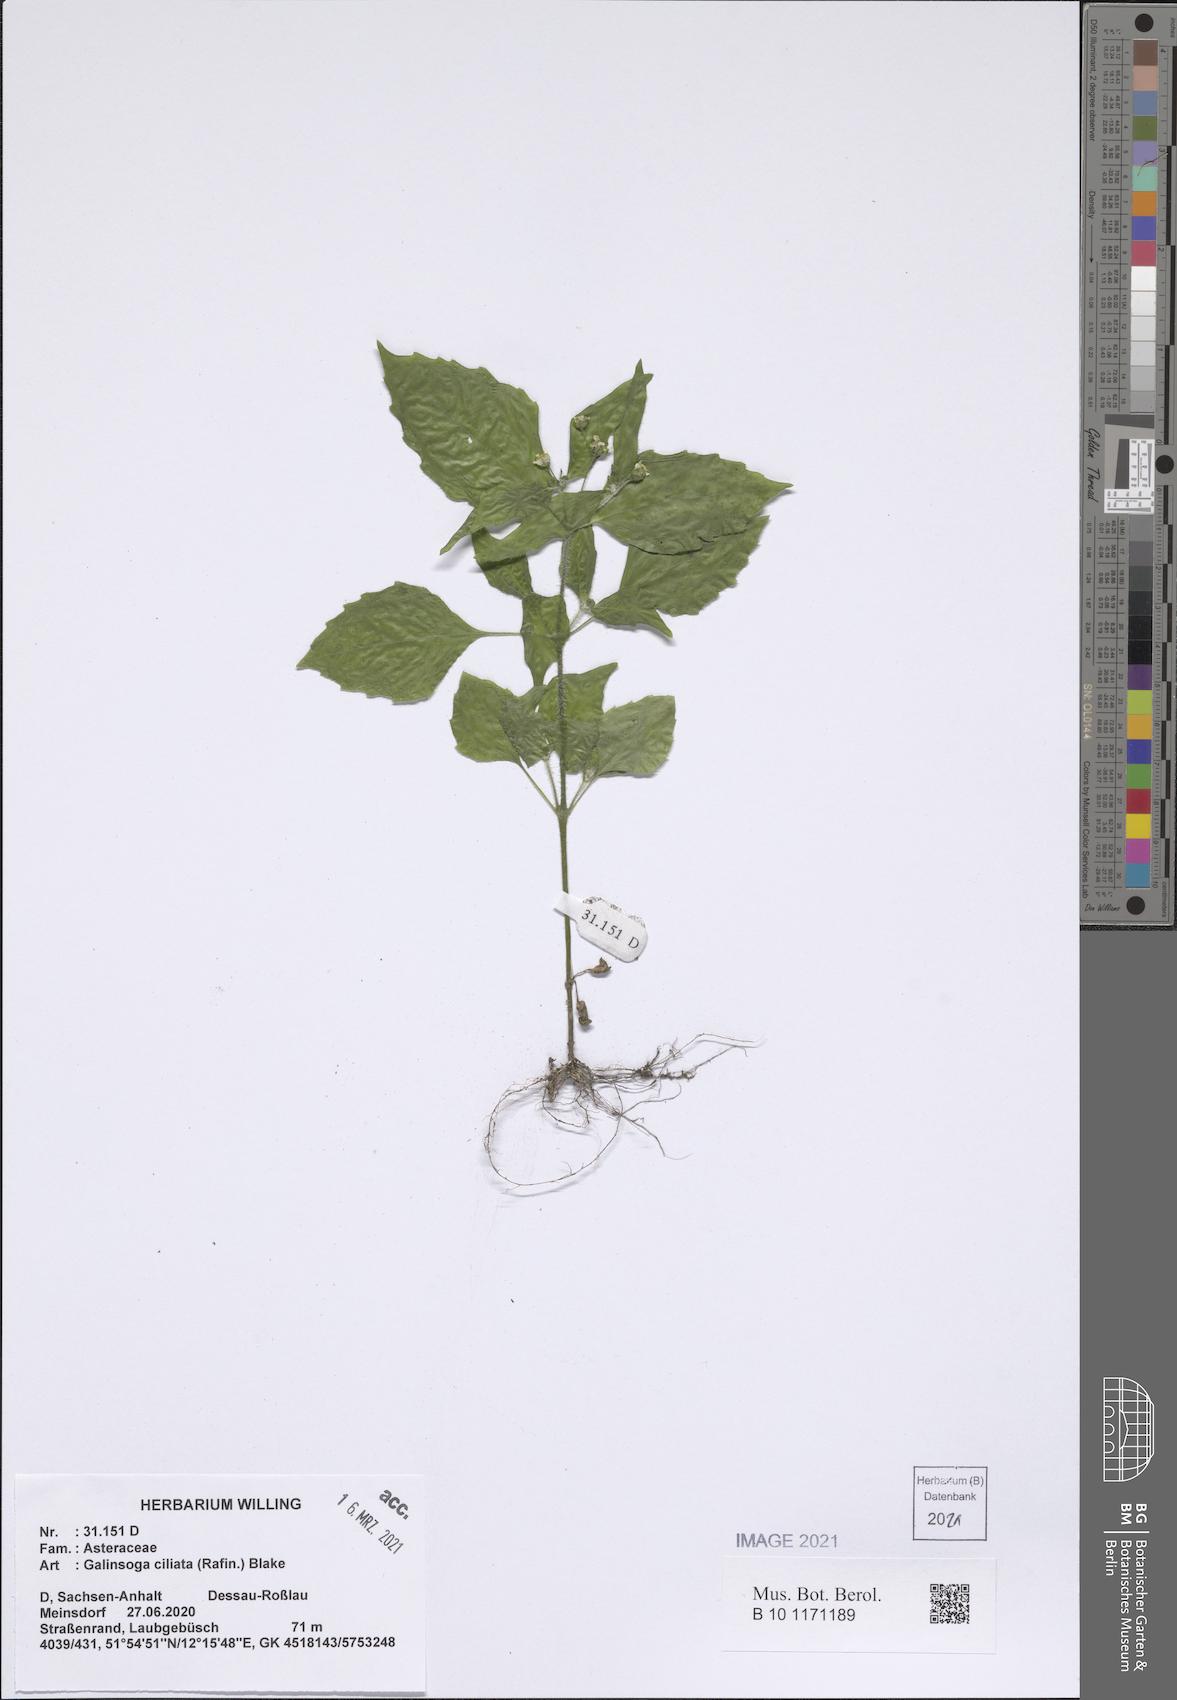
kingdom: Plantae
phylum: Tracheophyta
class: Magnoliopsida
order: Asterales
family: Asteraceae
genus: Galinsoga
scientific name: Galinsoga quadriradiata
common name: Shaggy soldier
